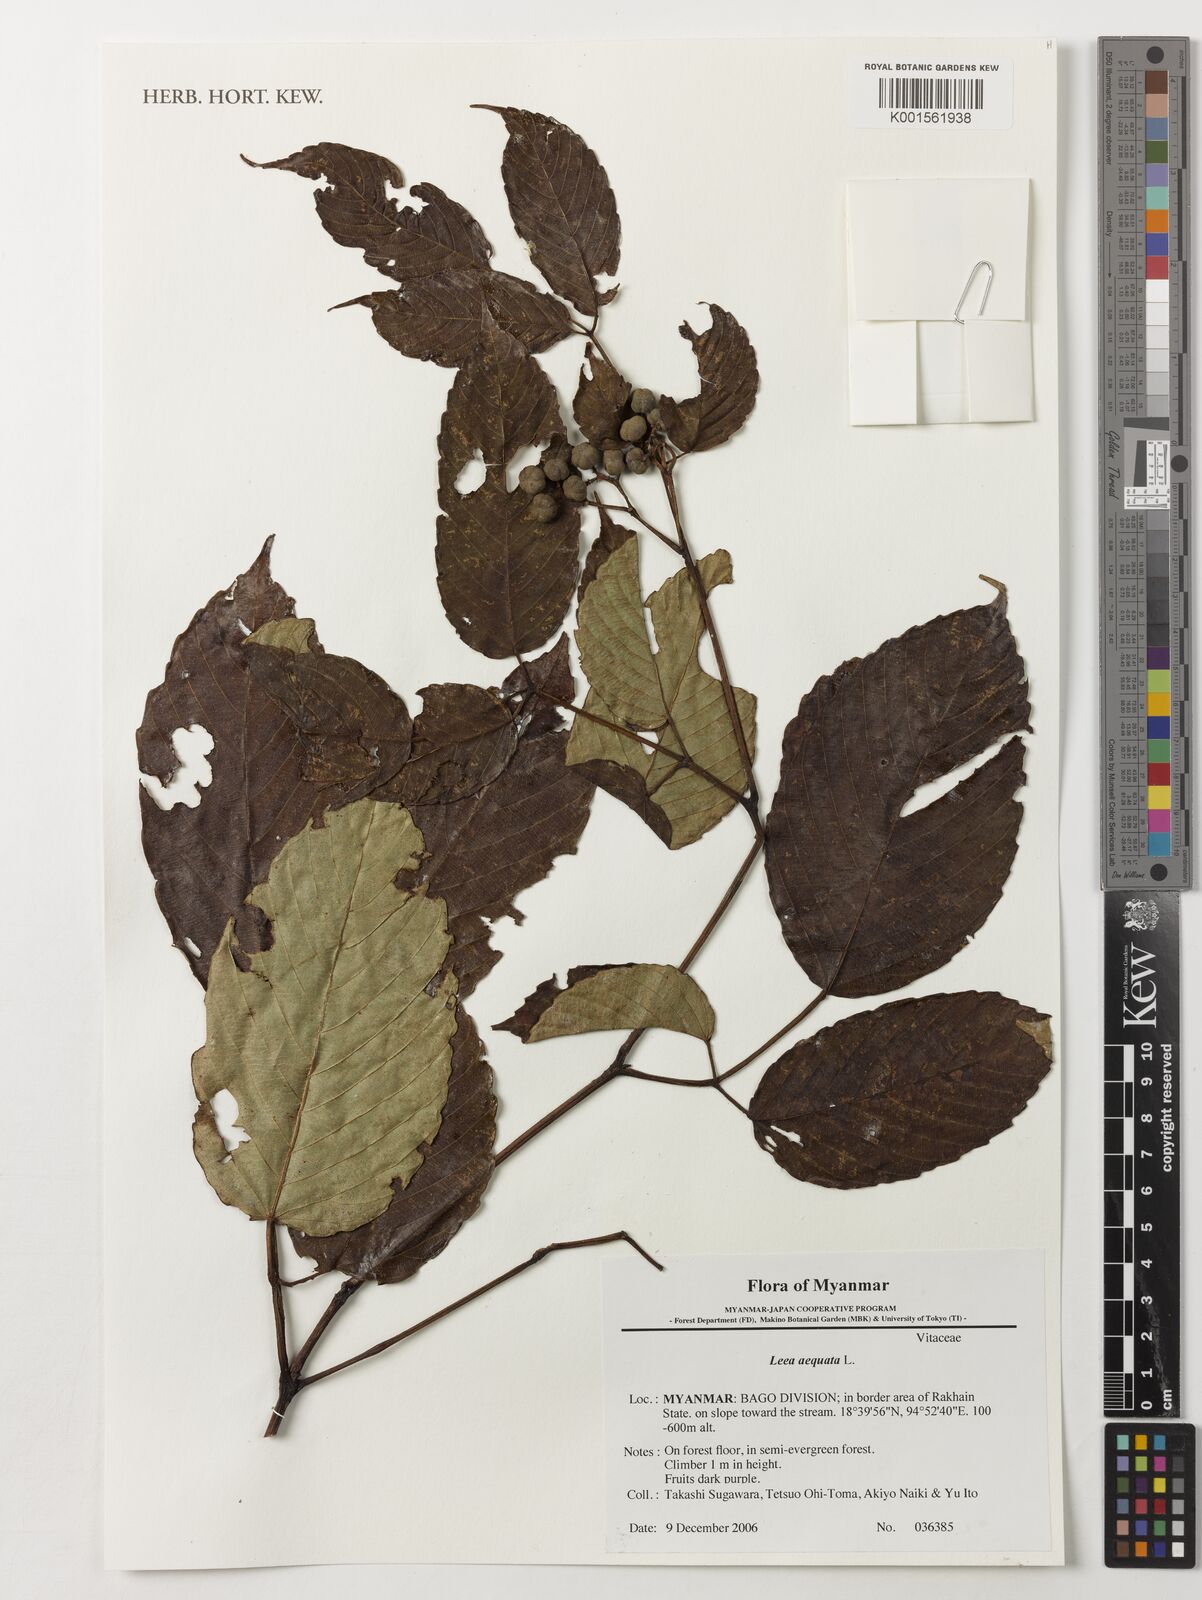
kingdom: Plantae
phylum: Tracheophyta
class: Magnoliopsida
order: Vitales
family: Vitaceae
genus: Leea
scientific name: Leea aequata
